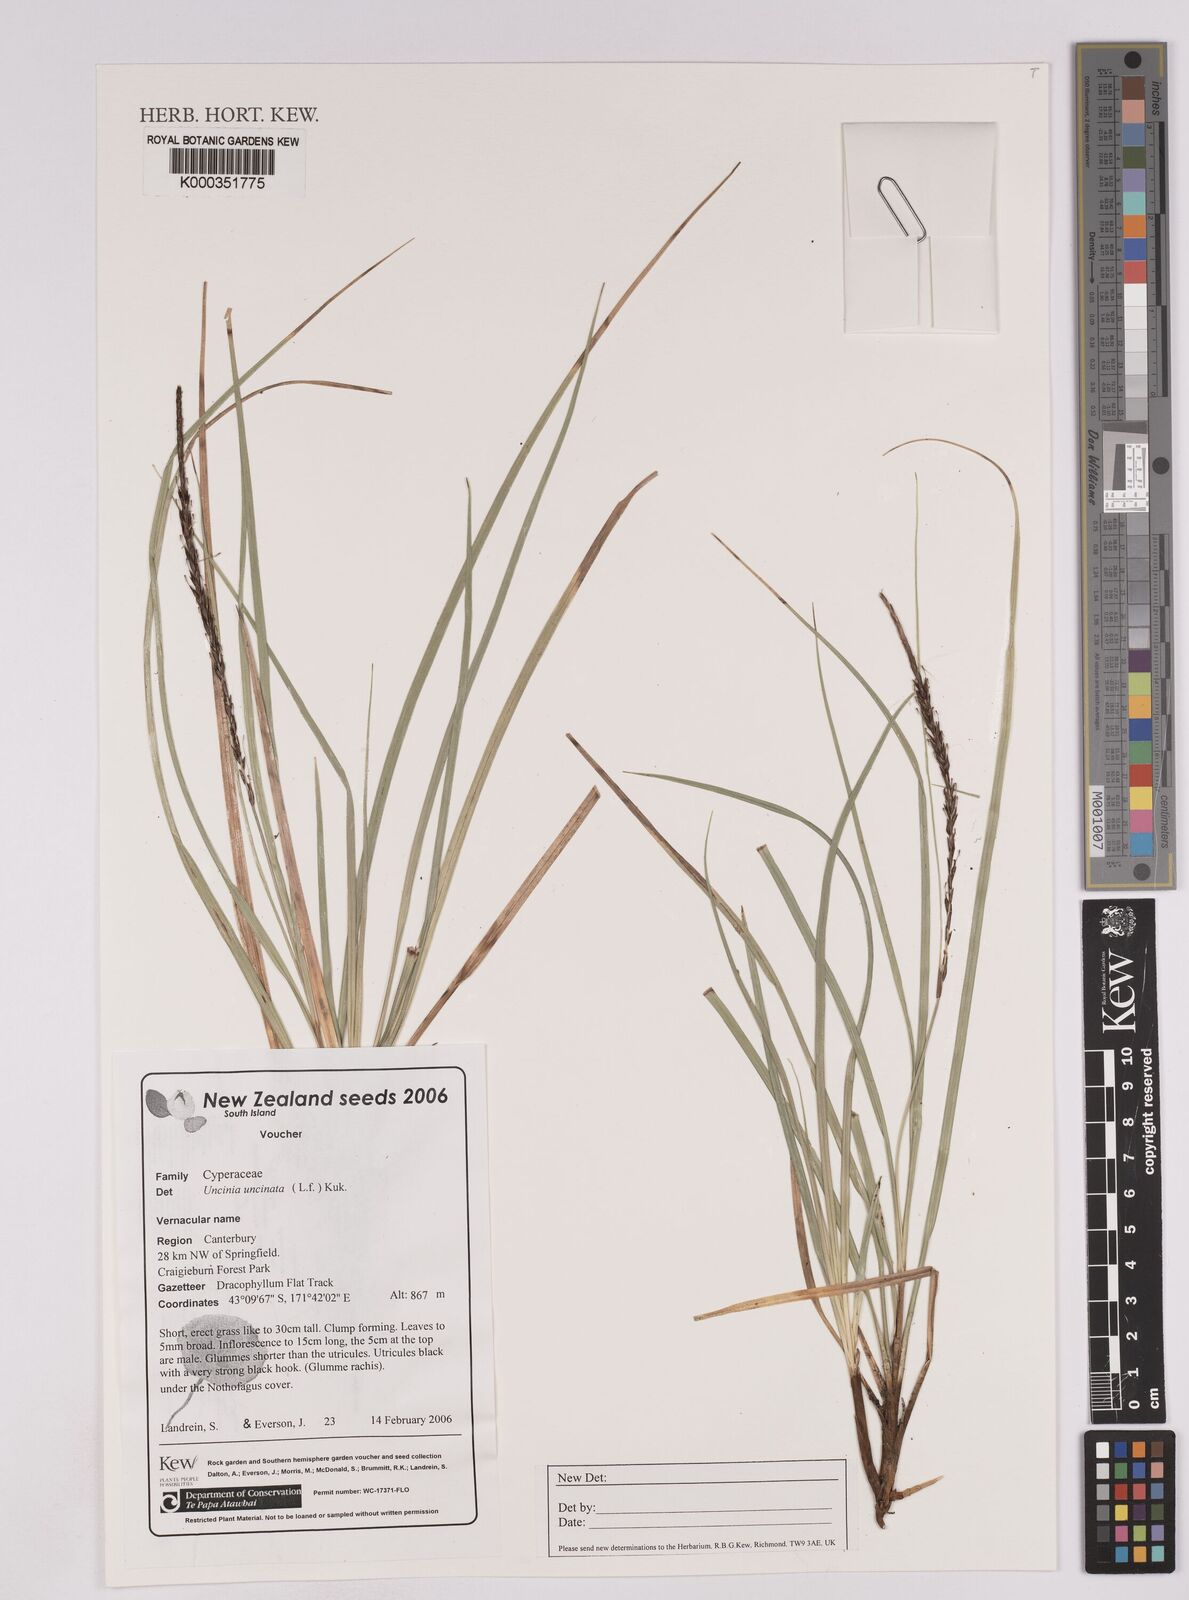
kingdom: Plantae
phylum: Tracheophyta
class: Liliopsida
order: Poales
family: Cyperaceae
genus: Carex
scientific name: Carex uncinata
